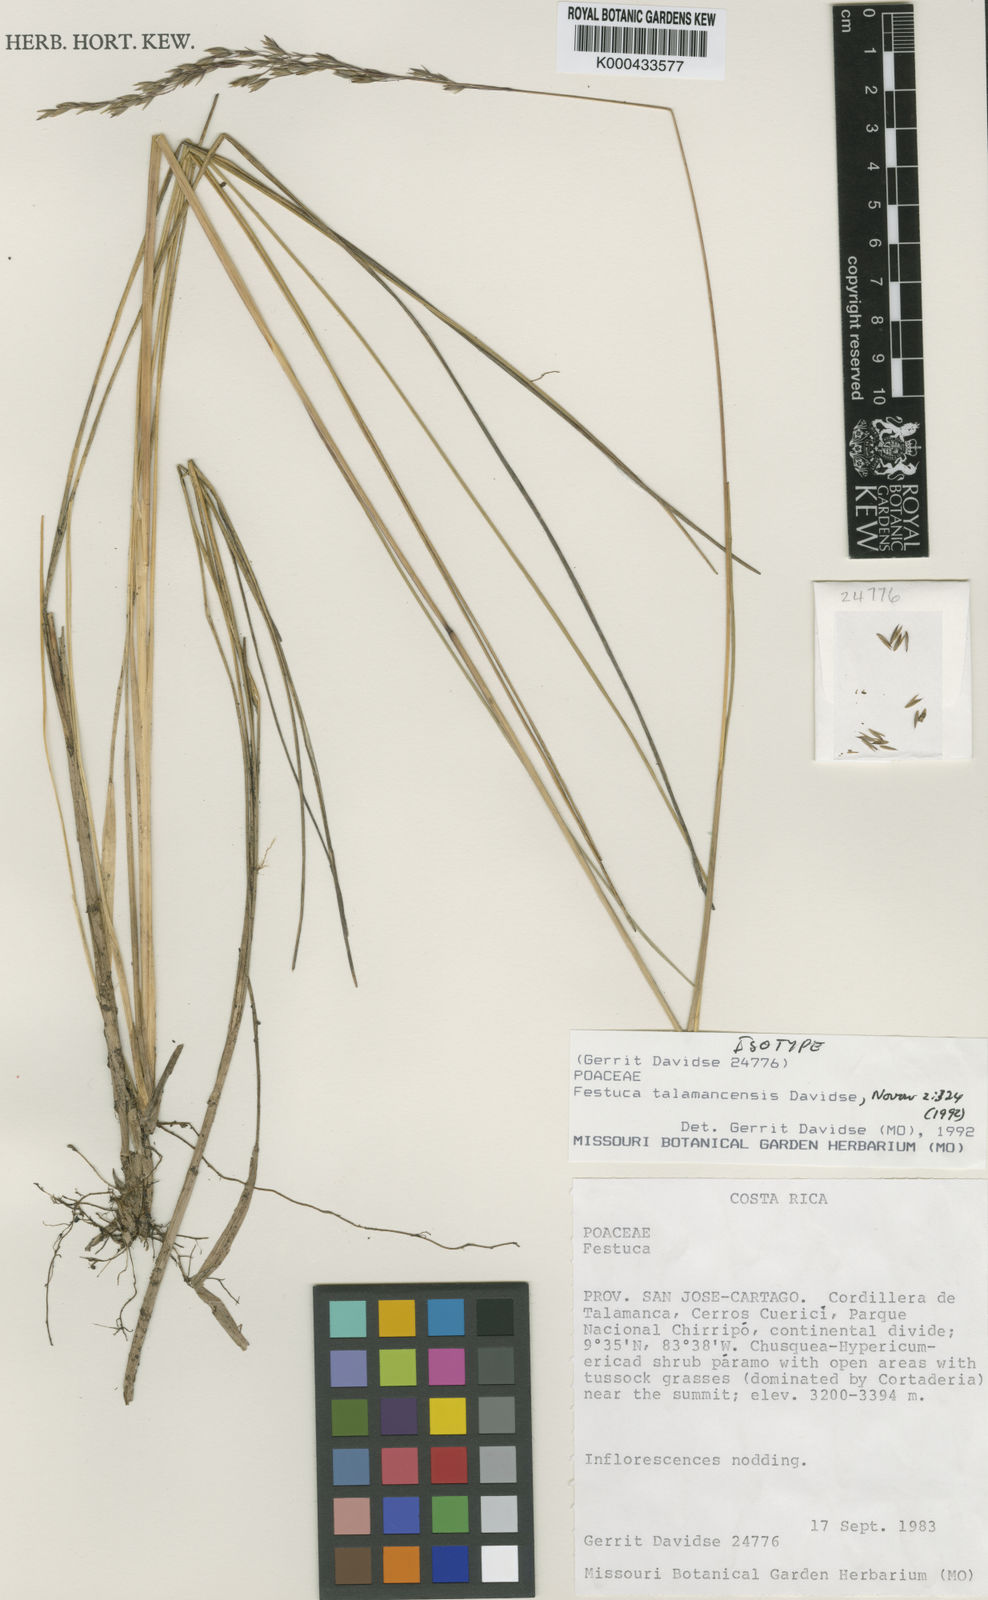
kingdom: Plantae
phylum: Tracheophyta
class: Liliopsida
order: Poales
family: Poaceae
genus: Festuca
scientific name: Festuca talamancensis
